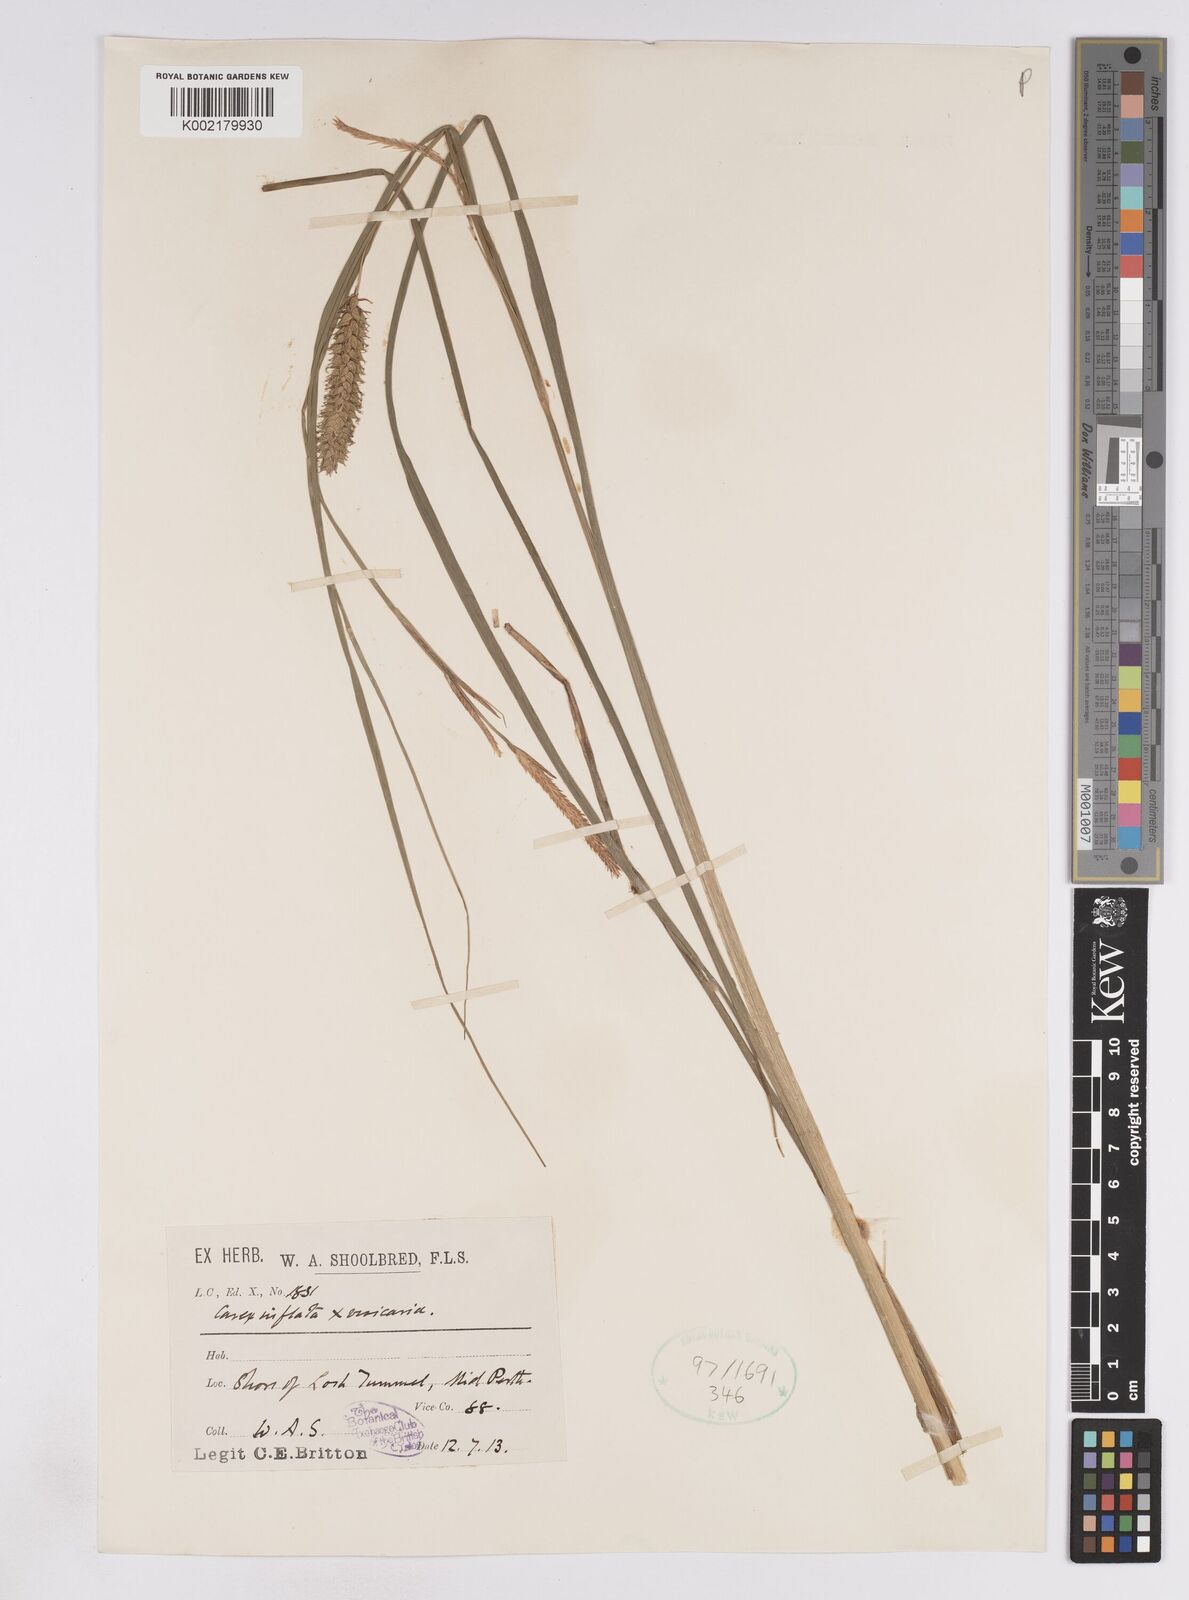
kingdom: Plantae
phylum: Tracheophyta
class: Liliopsida
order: Poales
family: Cyperaceae
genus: Carex
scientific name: Carex rostrata
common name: Bottle sedge
